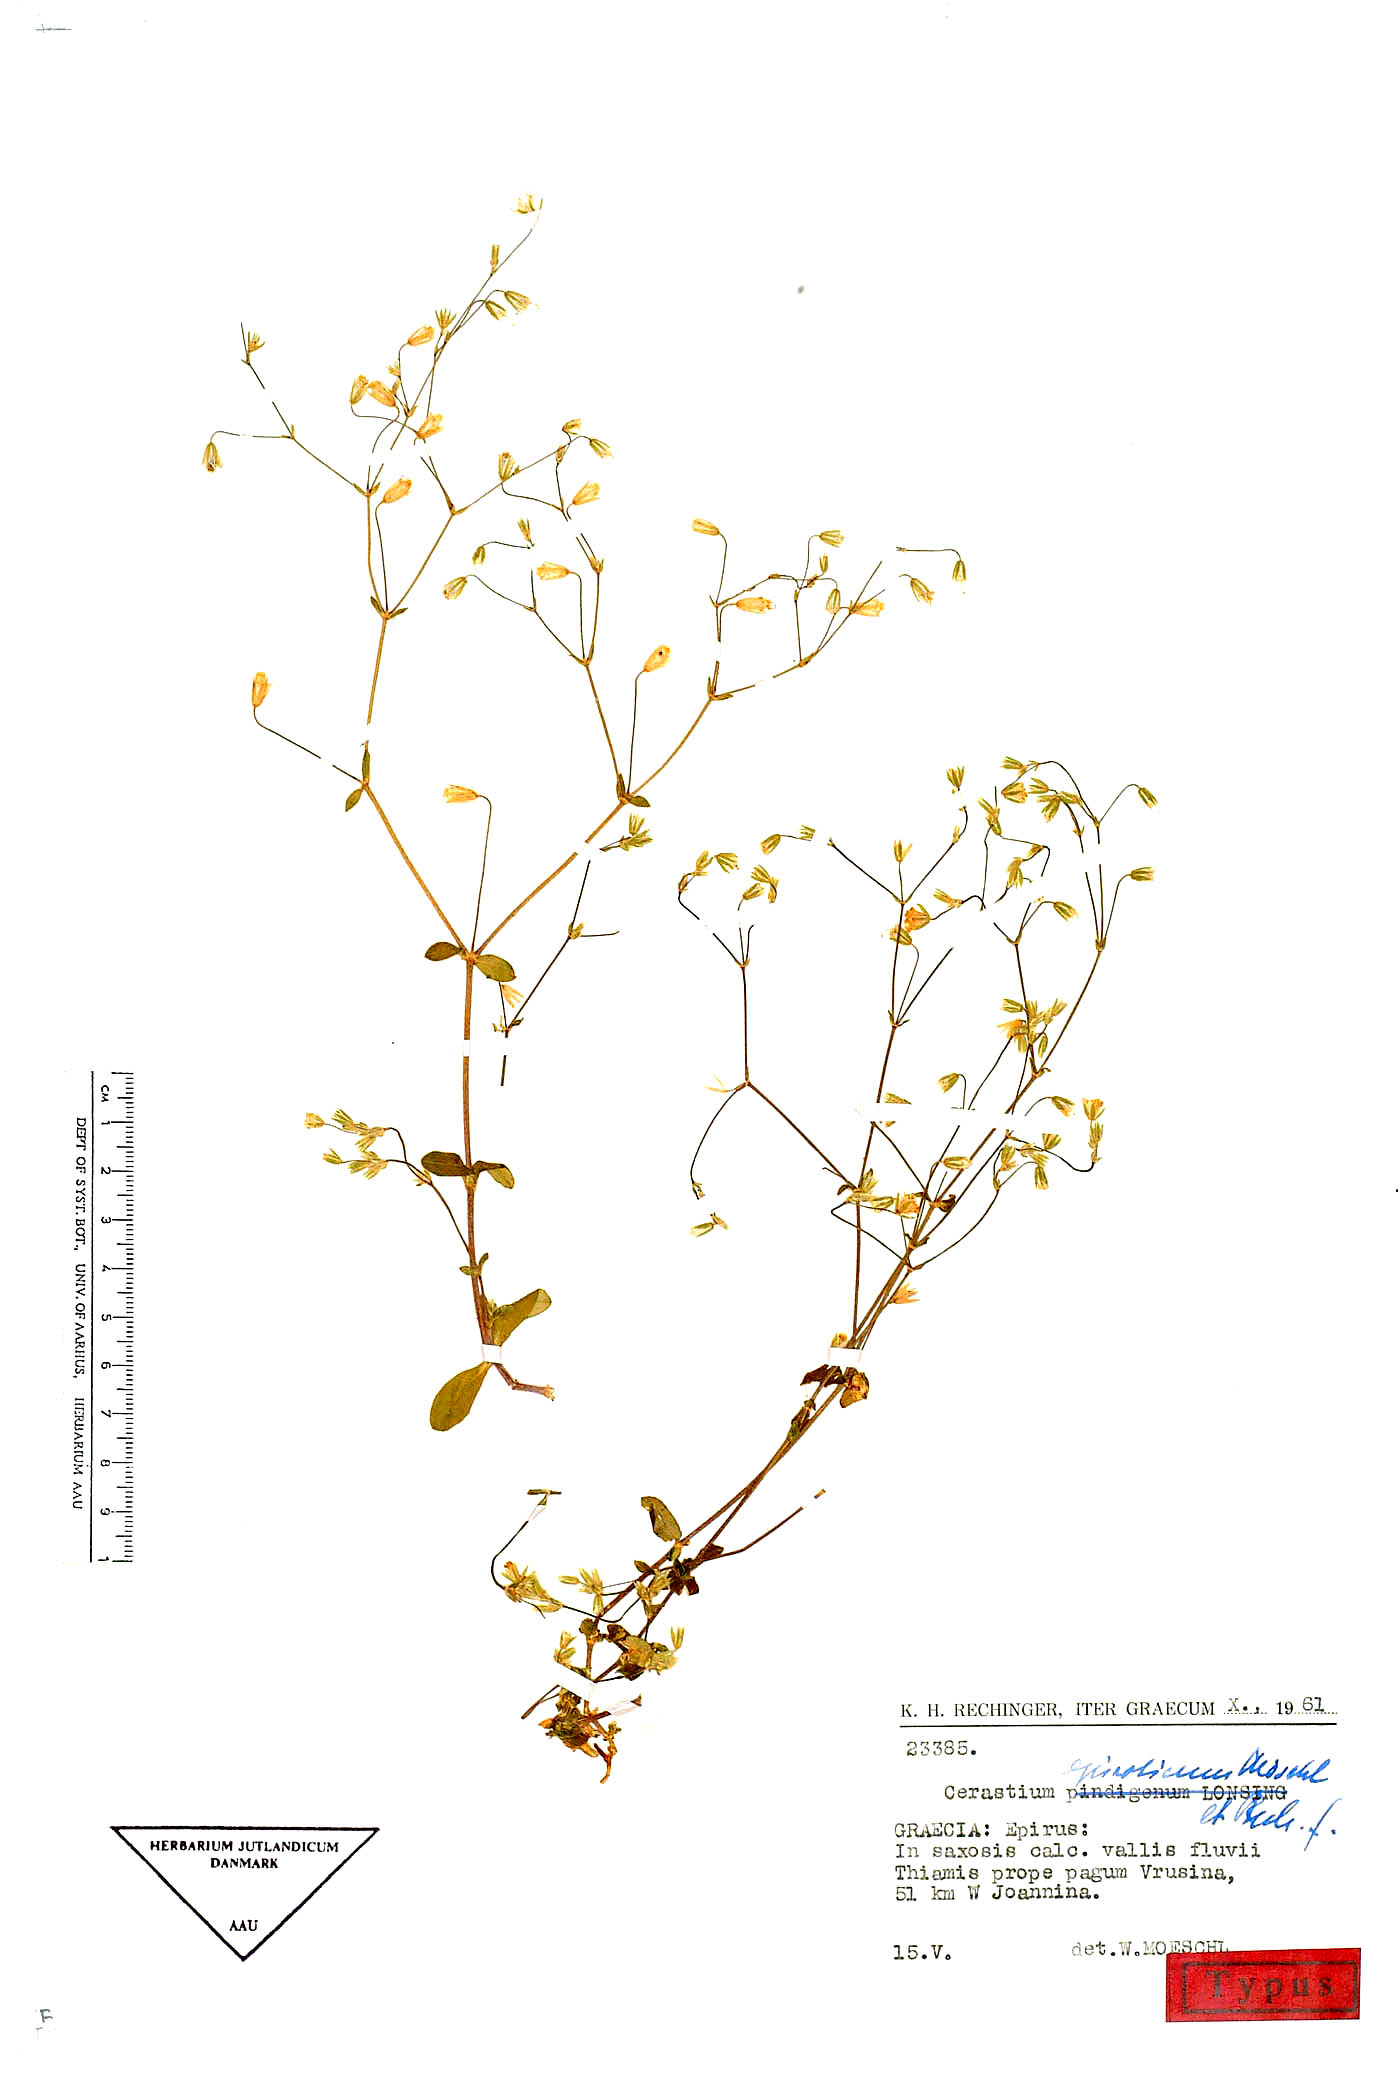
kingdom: Plantae
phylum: Tracheophyta
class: Magnoliopsida
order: Caryophyllales
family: Caryophyllaceae
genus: Cerastium
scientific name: Cerastium tenoreanum
